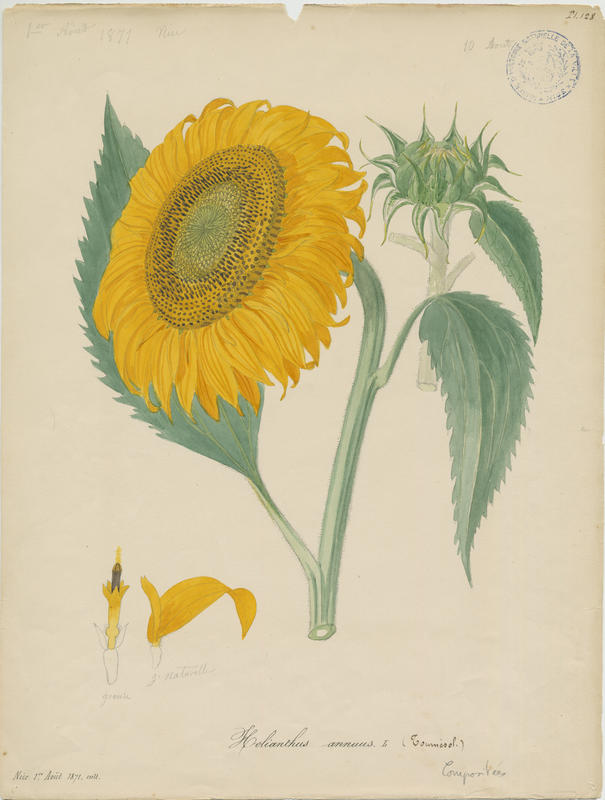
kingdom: Plantae
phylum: Tracheophyta
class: Magnoliopsida
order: Asterales
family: Asteraceae
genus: Helianthus
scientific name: Helianthus annuus
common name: Sunflower
